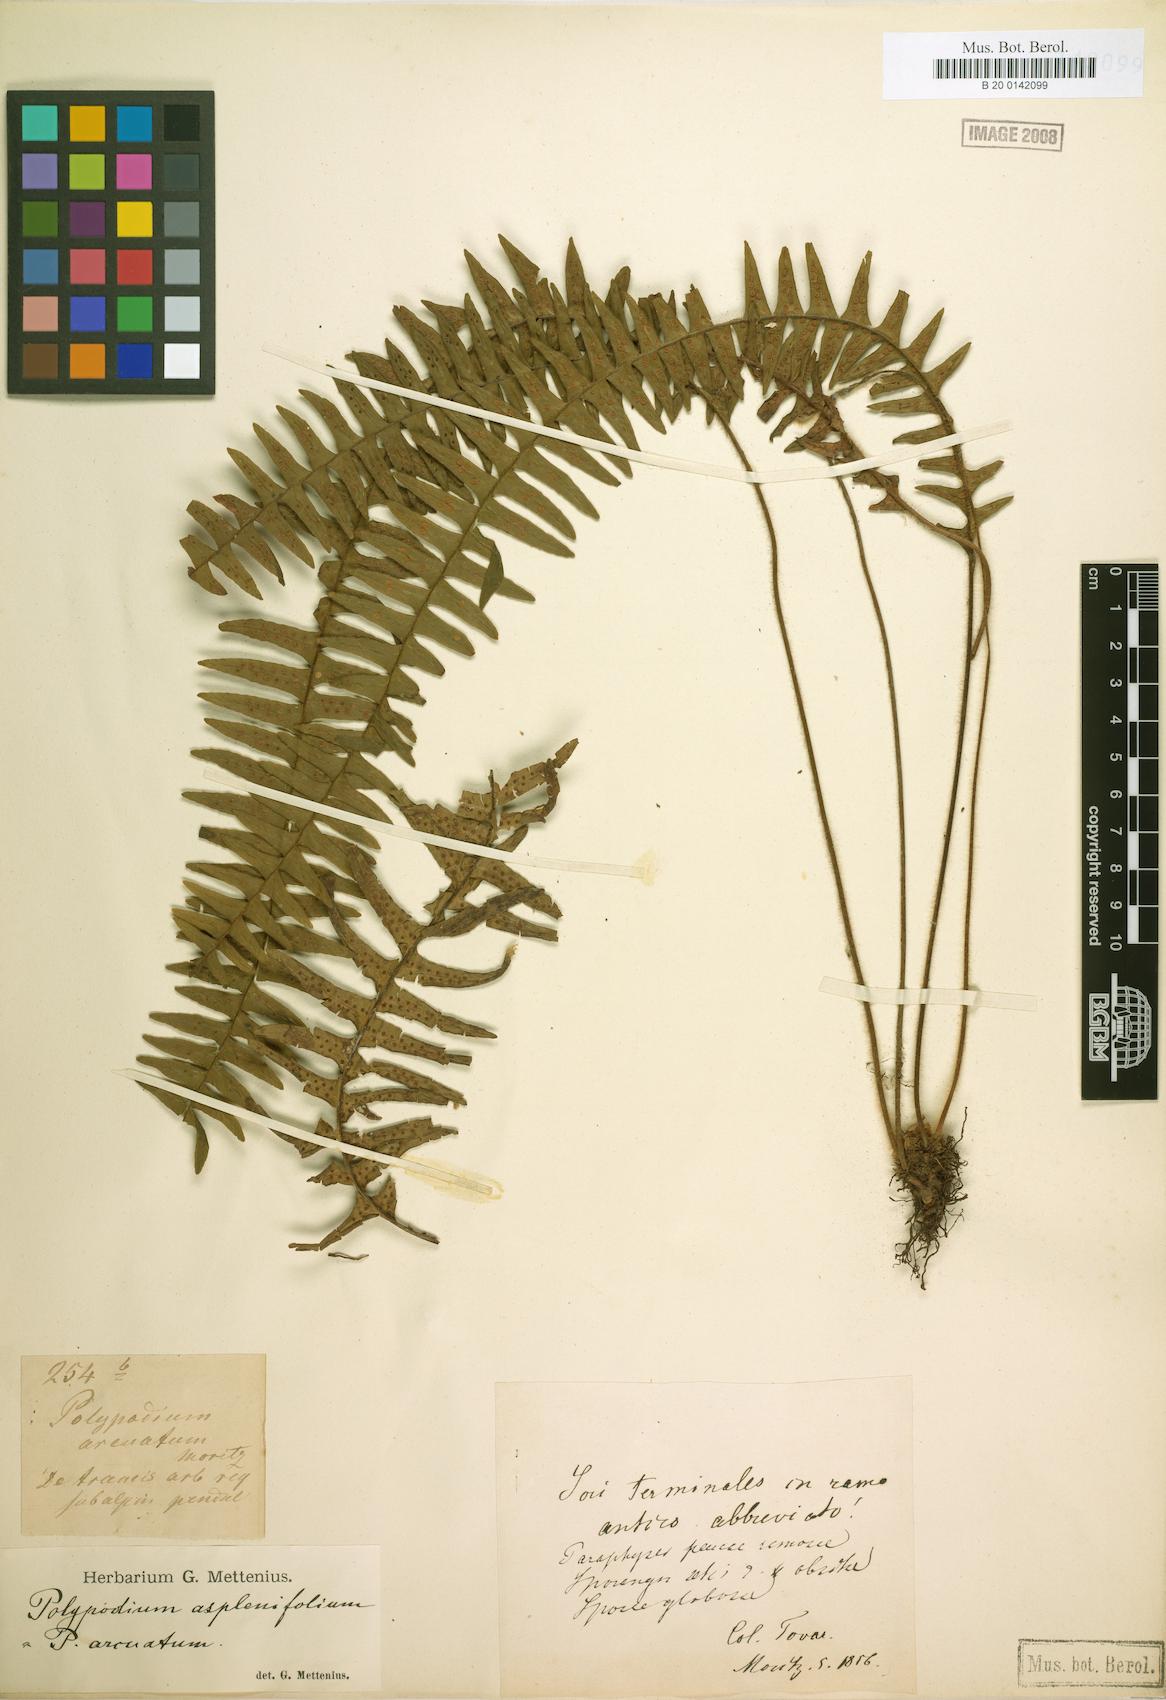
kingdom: Plantae
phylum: Tracheophyta
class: Polypodiopsida
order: Polypodiales
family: Polypodiaceae
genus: Terpsichore
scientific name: Terpsichore chrysleri
